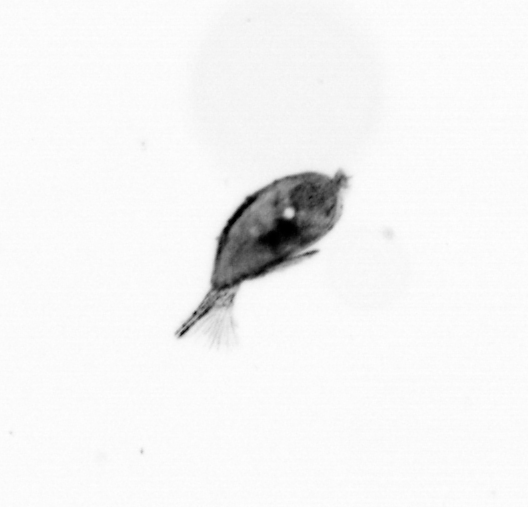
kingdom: Animalia
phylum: Arthropoda
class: Maxillopoda
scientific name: Maxillopoda
